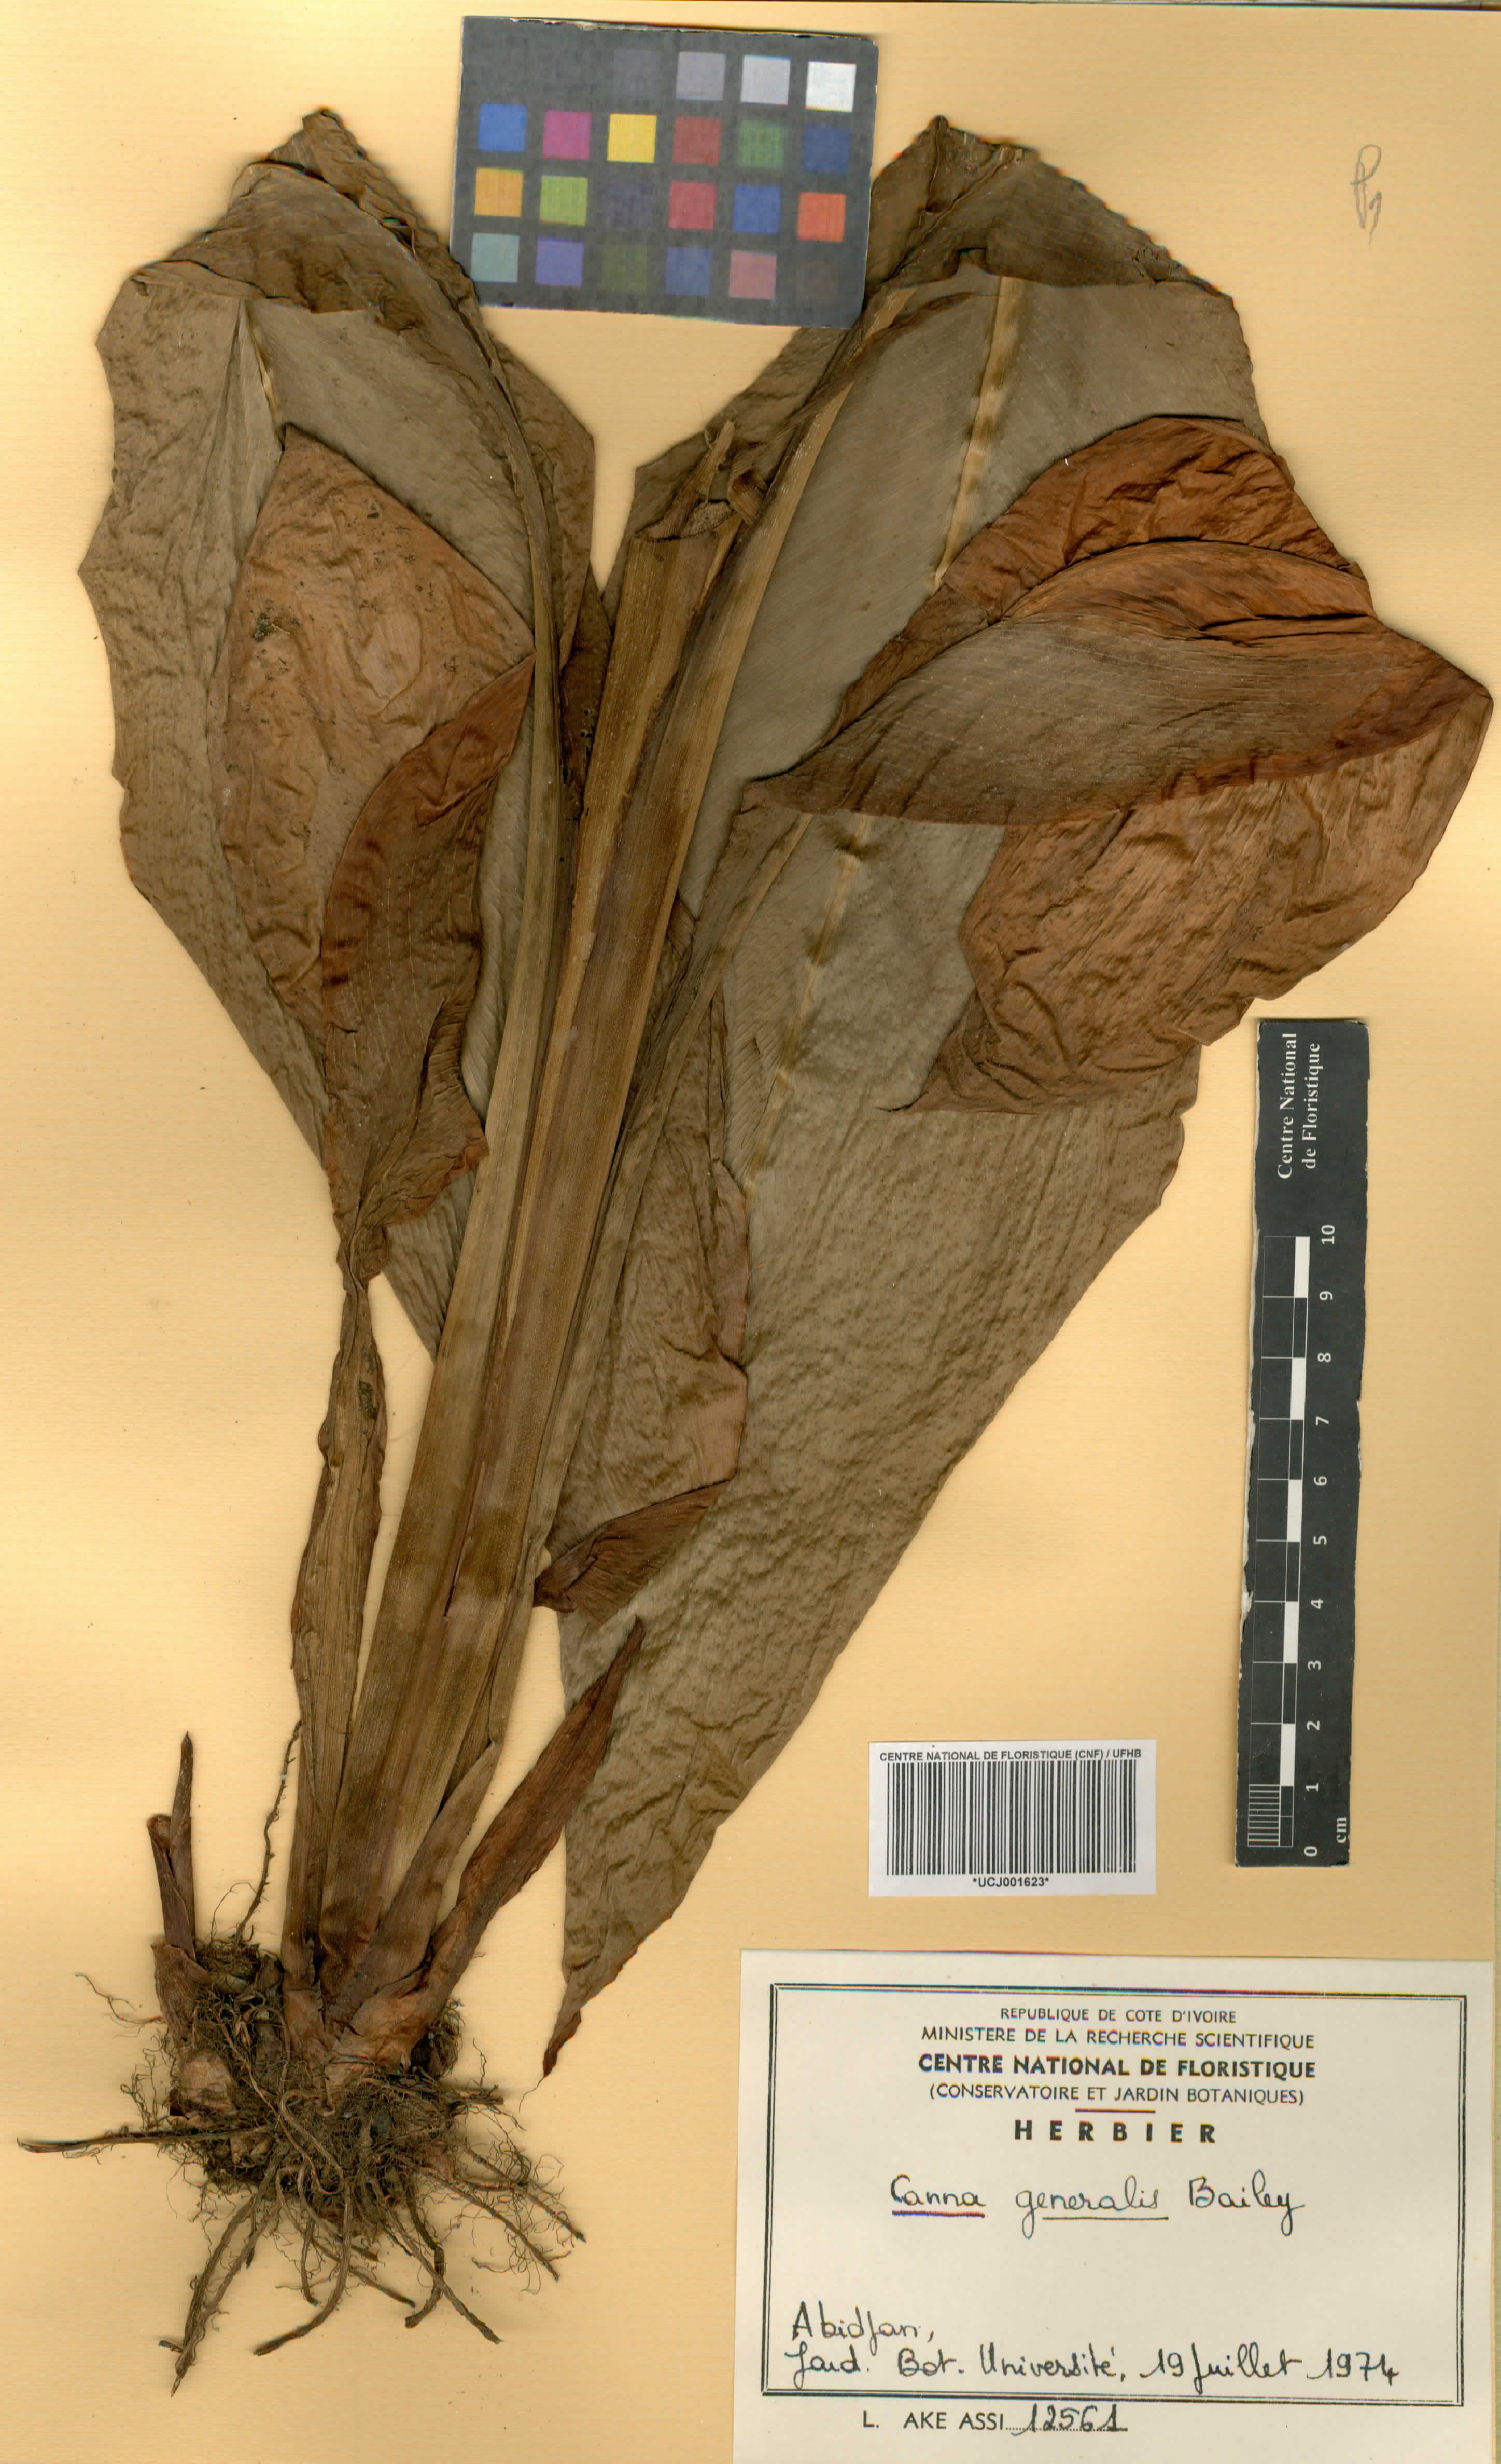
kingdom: Plantae
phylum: Tracheophyta
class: Liliopsida
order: Zingiberales
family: Cannaceae
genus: Canna
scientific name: Canna hybrida
